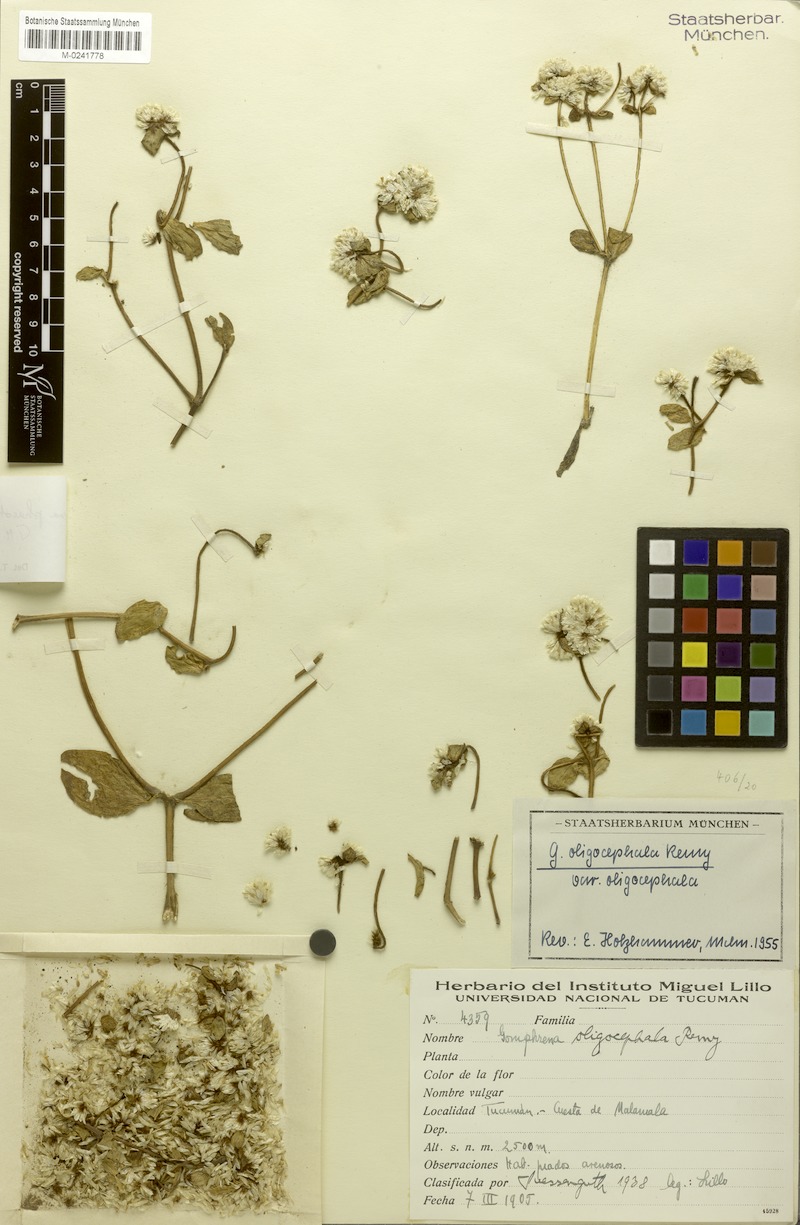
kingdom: Plantae
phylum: Tracheophyta
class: Magnoliopsida
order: Caryophyllales
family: Amaranthaceae
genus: Gomphrena
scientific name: Gomphrena phaeotricha
